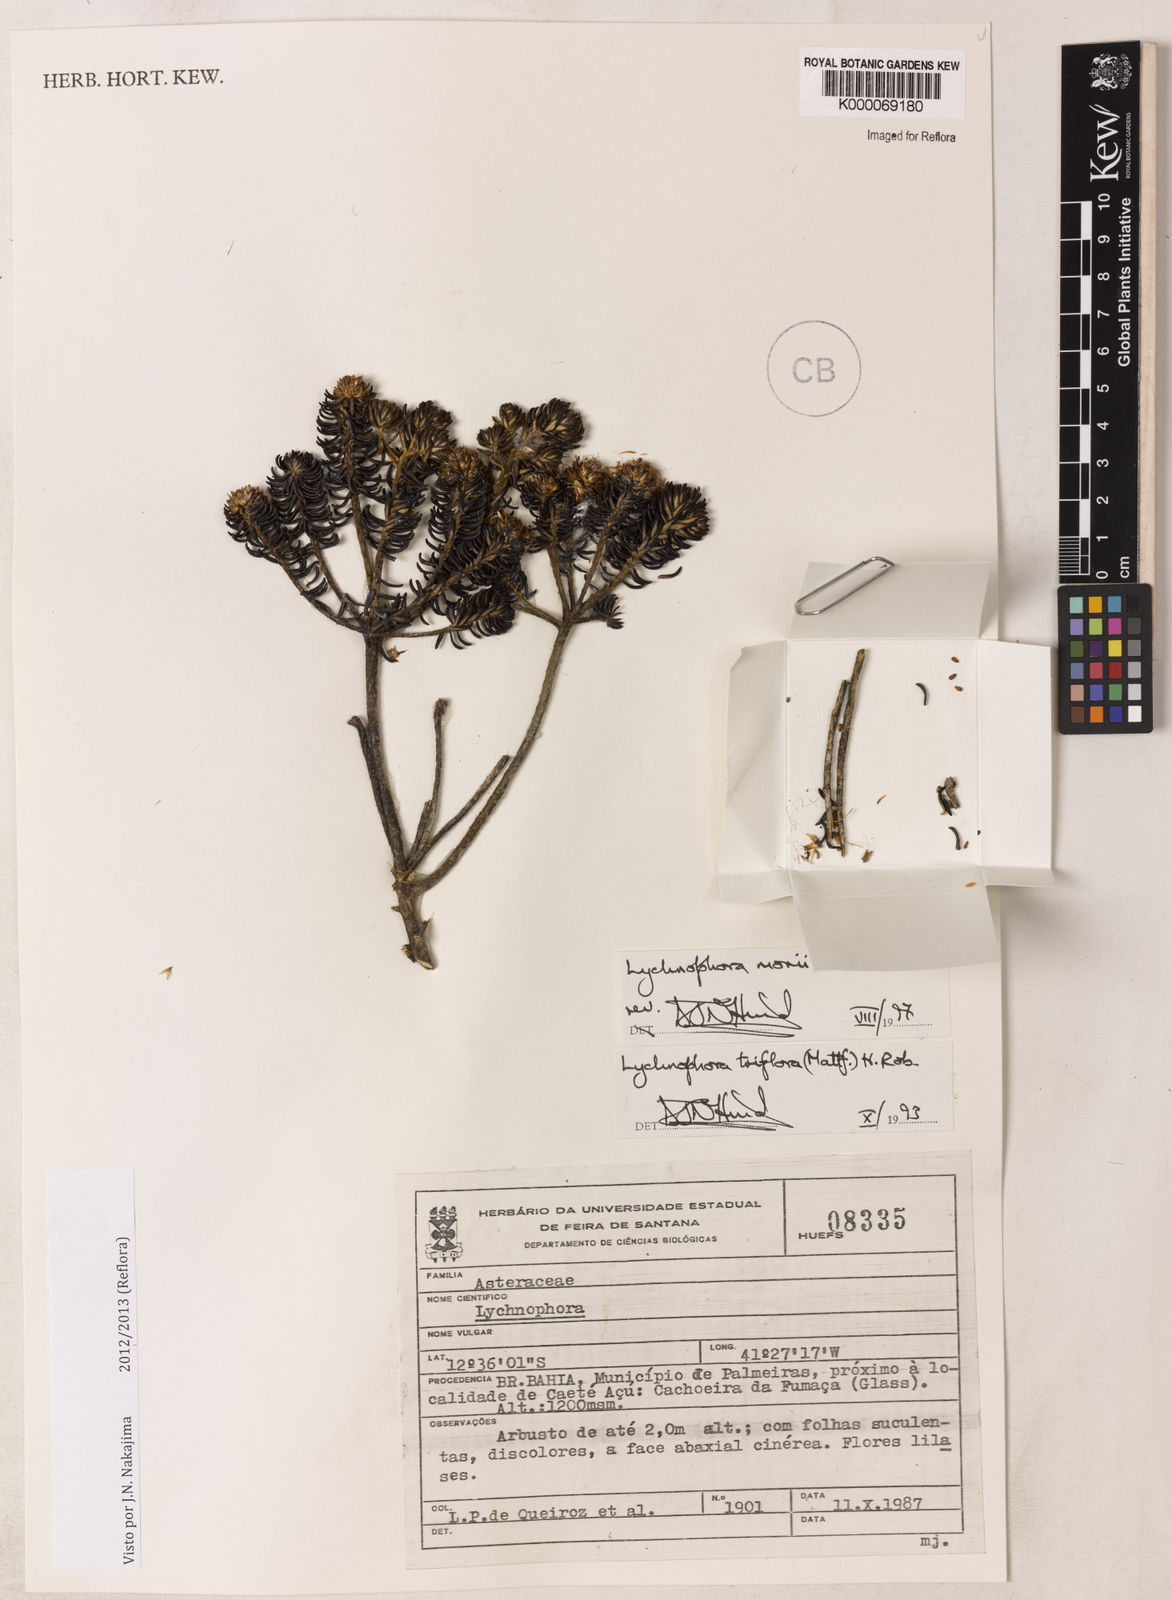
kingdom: Plantae
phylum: Tracheophyta
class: Magnoliopsida
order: Asterales
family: Asteraceae
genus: Lychnophorella
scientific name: Lychnophorella morii
